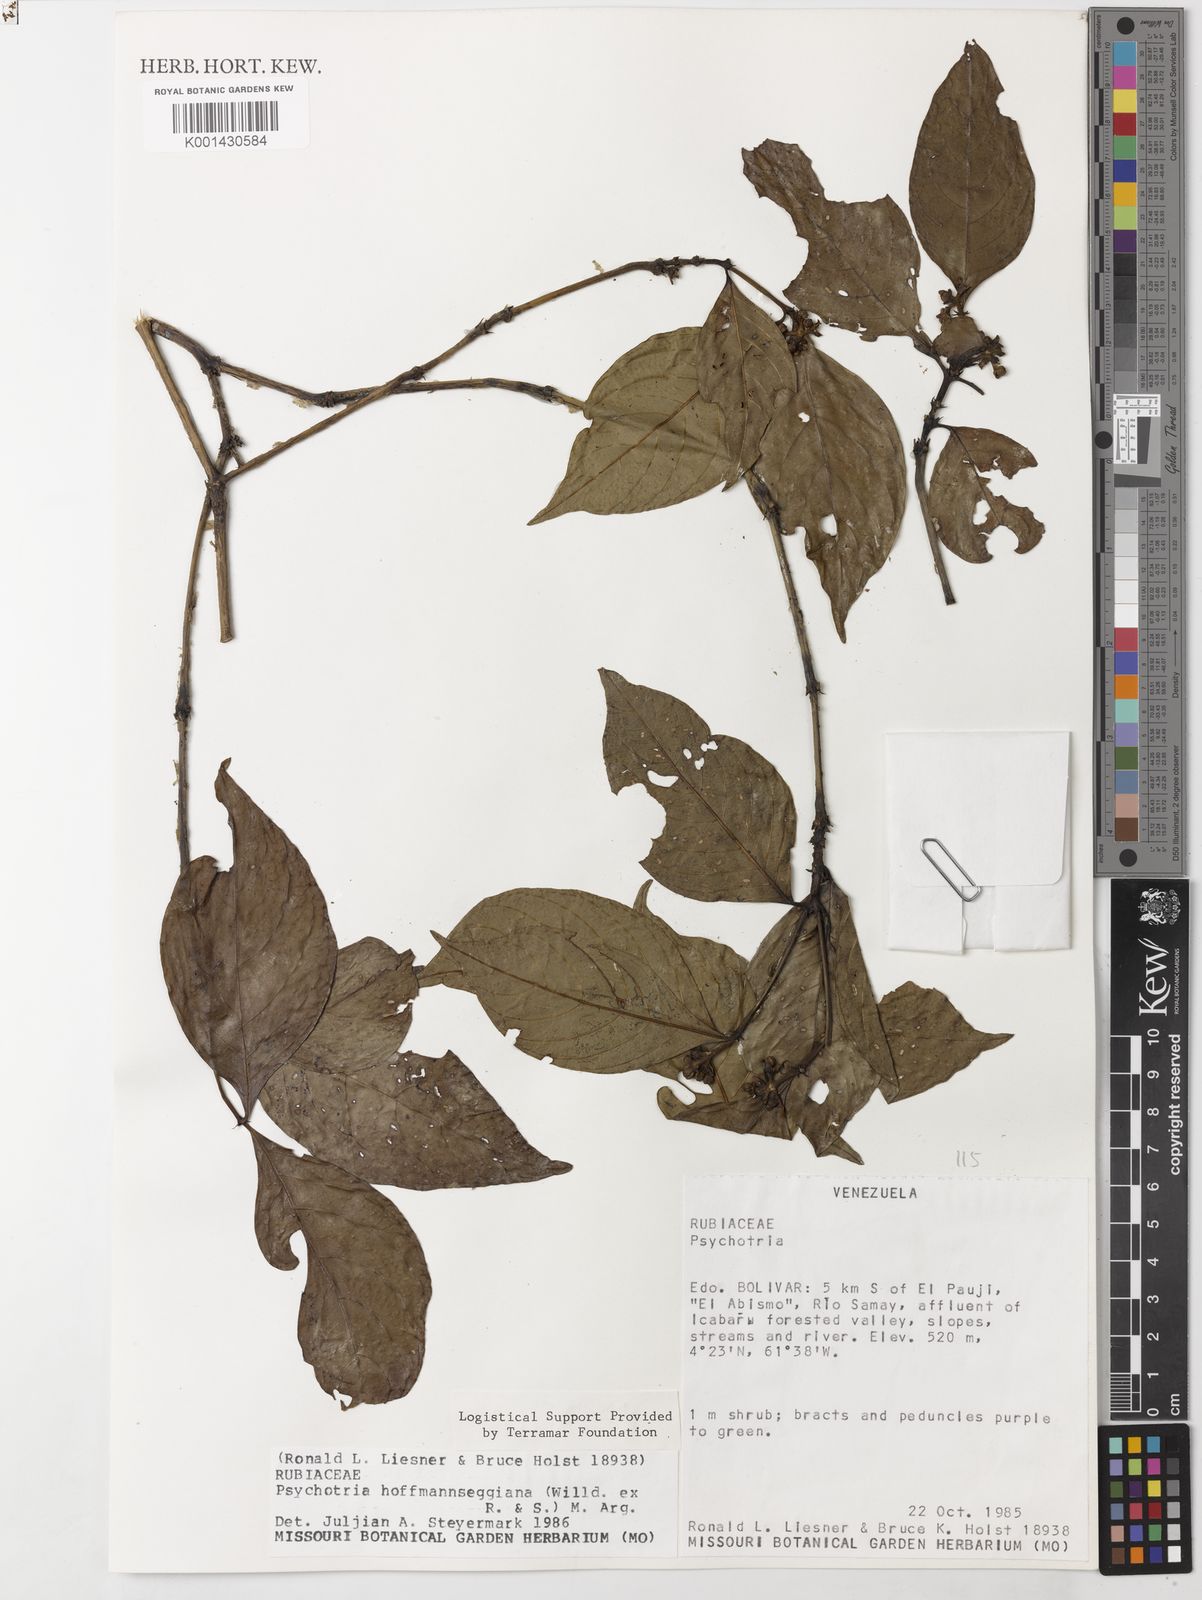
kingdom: Plantae
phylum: Tracheophyta
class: Magnoliopsida
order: Gentianales
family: Rubiaceae
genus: Psychotria
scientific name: Psychotria
